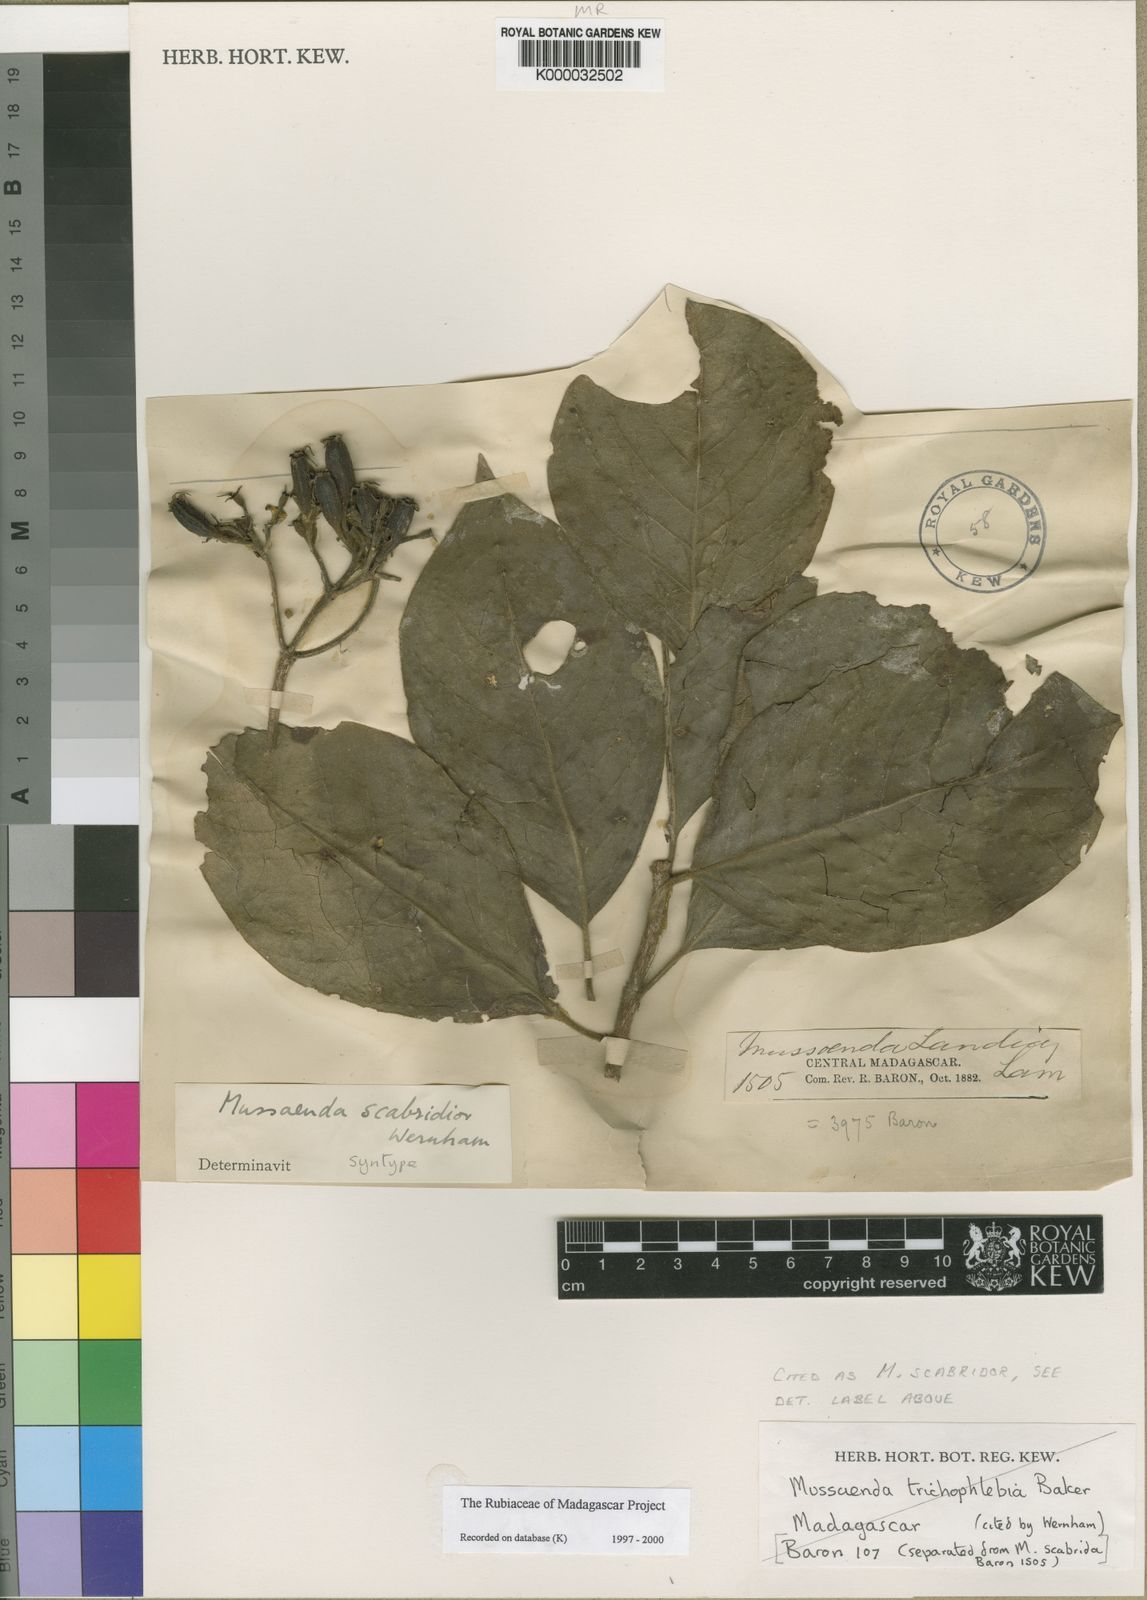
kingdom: Plantae
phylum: Tracheophyta
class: Magnoliopsida
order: Gentianales
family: Rubiaceae
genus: Bremeria
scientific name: Bremeria pervillei
